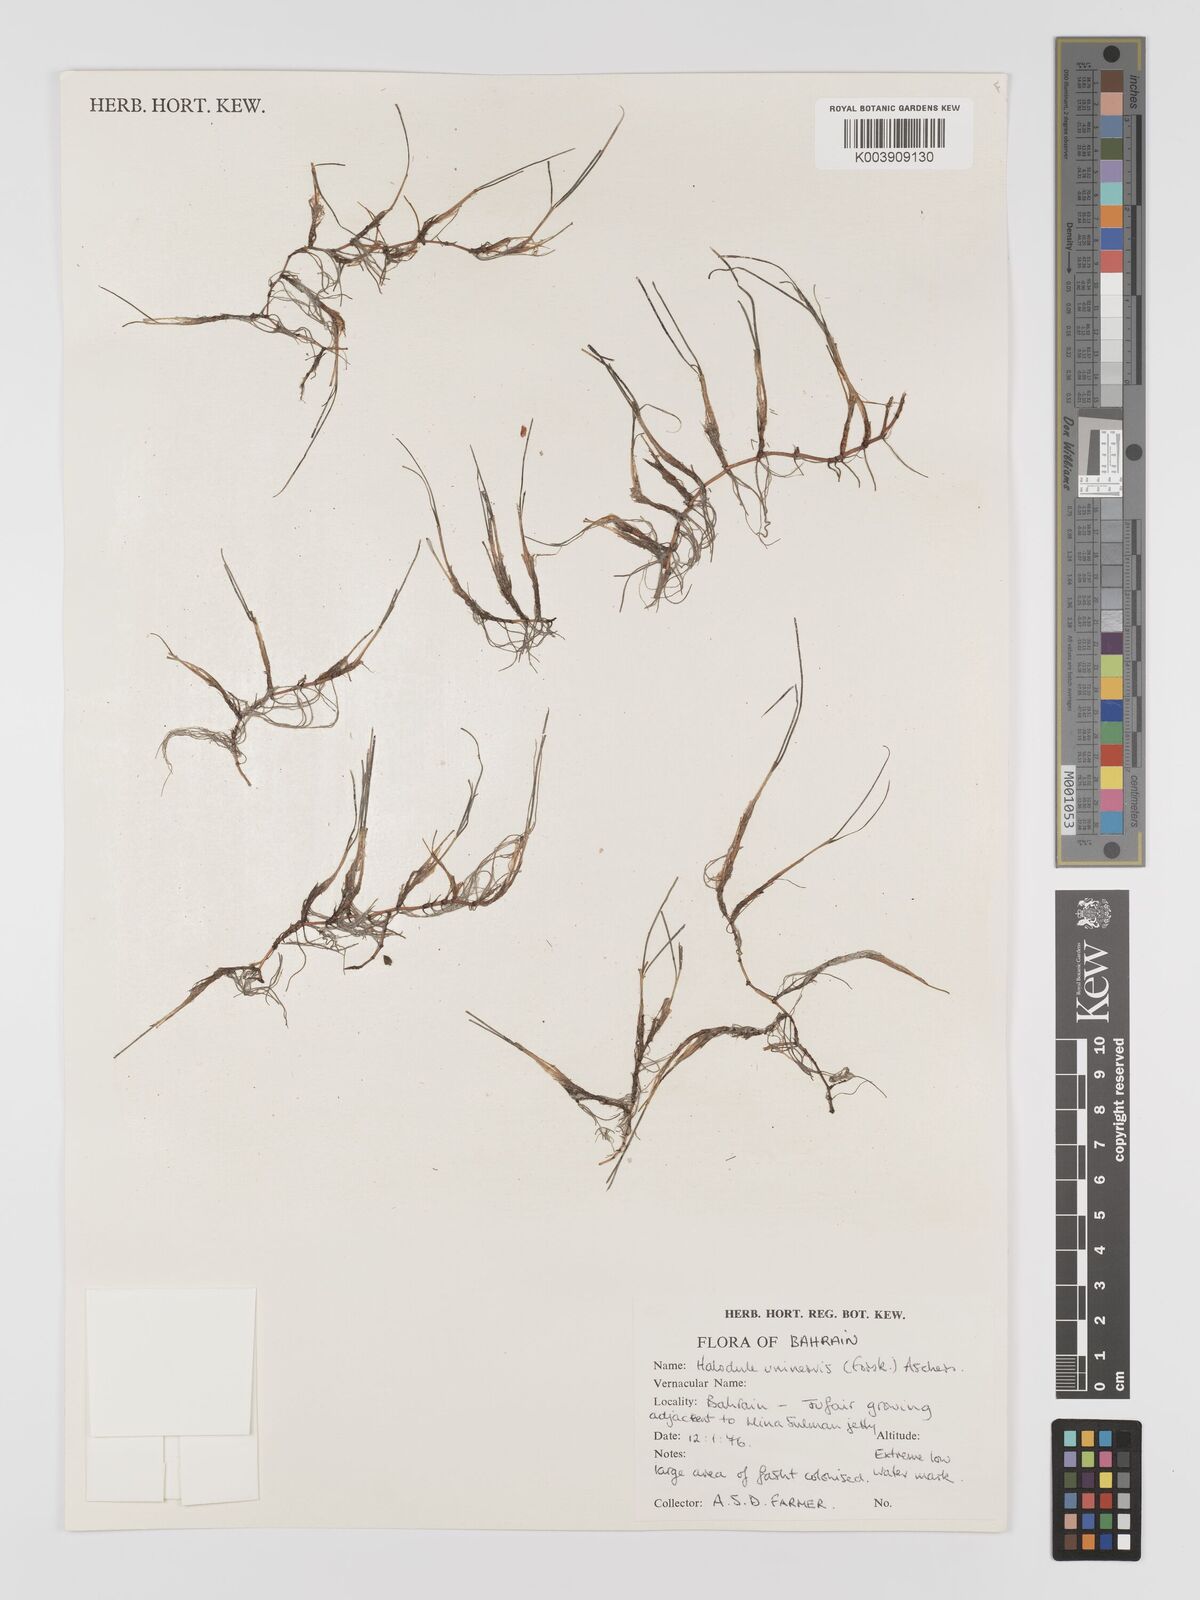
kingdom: Plantae
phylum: Tracheophyta
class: Liliopsida
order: Alismatales
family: Cymodoceaceae
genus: Halodule
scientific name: Halodule uninervis
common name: Narrowleaf seagrass
